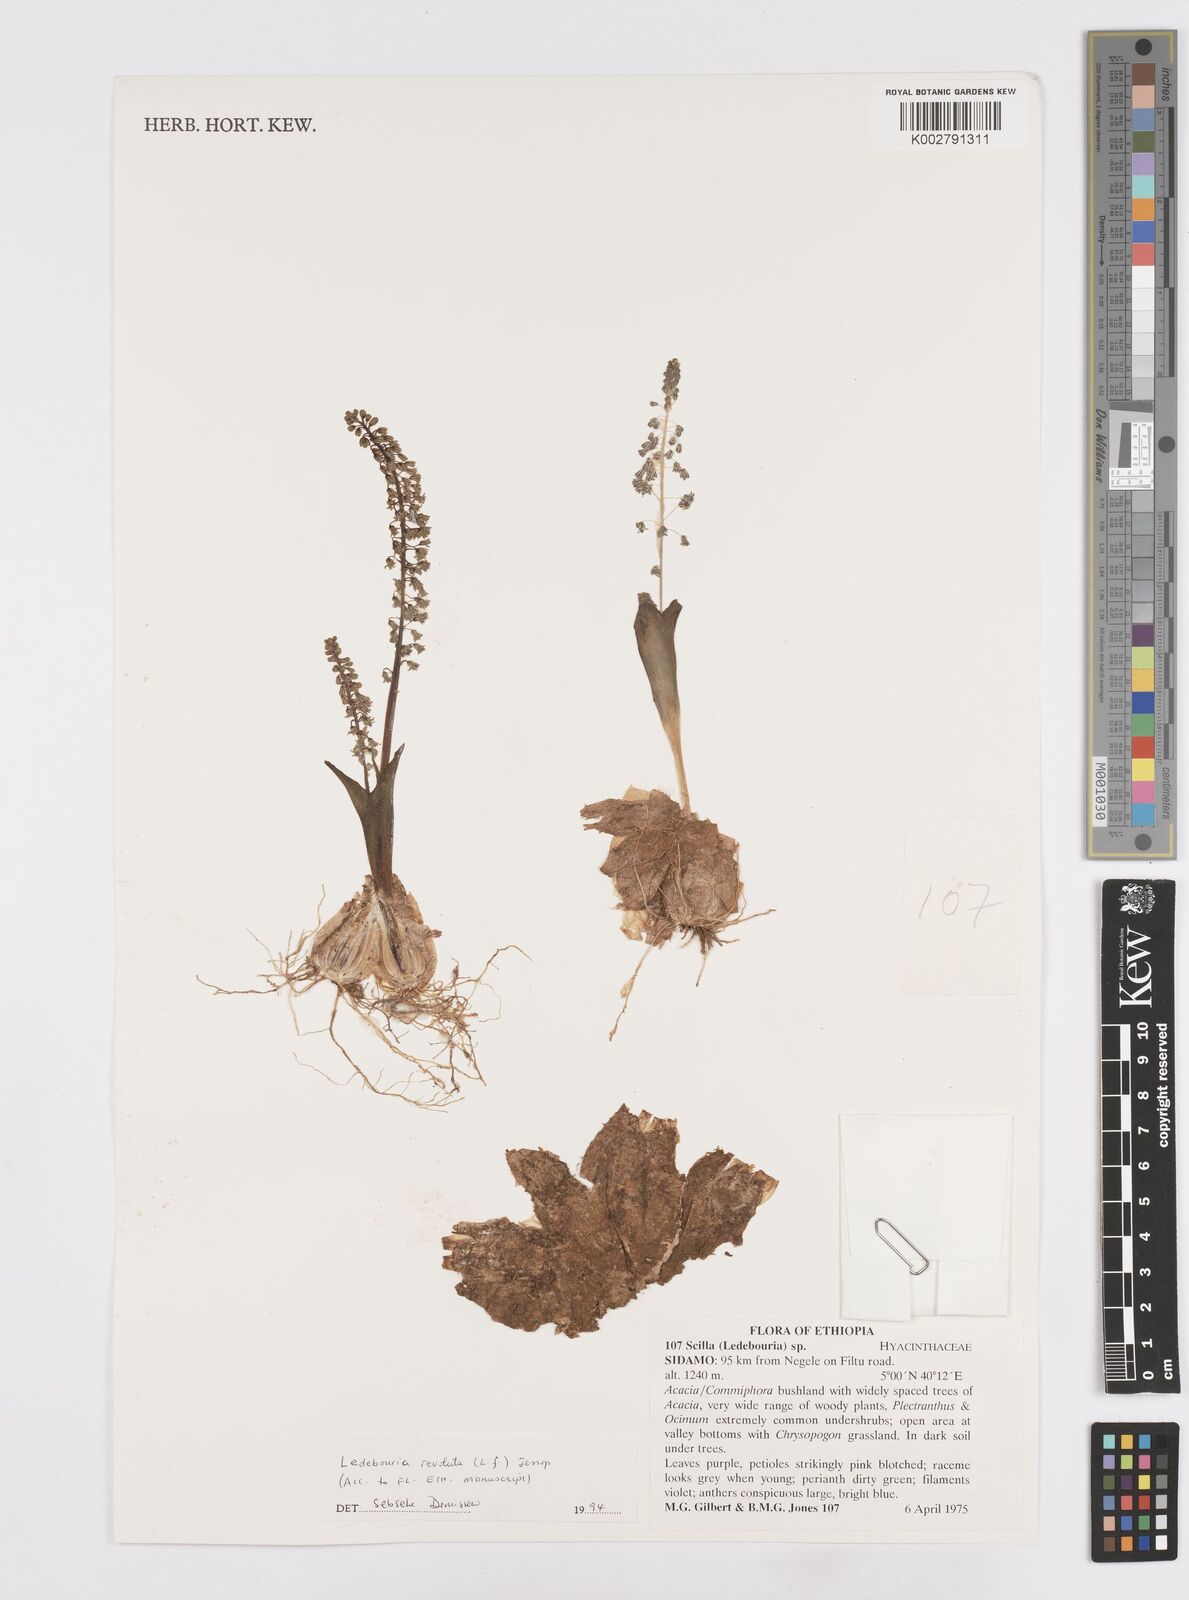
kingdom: Plantae
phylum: Tracheophyta
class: Liliopsida
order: Asparagales
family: Asparagaceae
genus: Scilla
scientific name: Scilla
